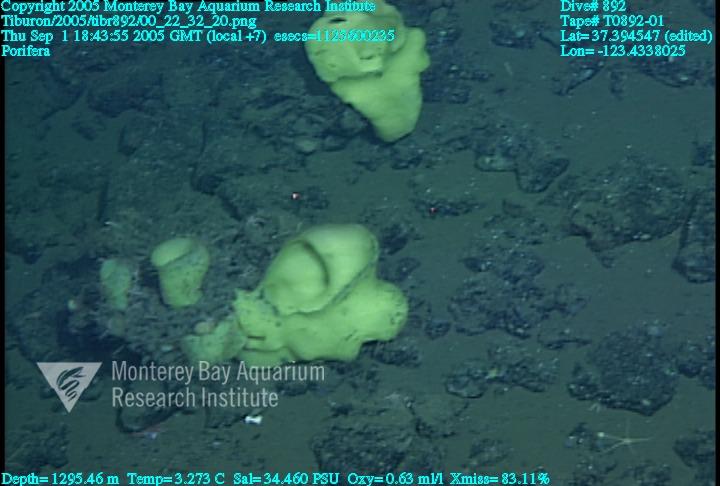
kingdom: Animalia
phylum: Porifera
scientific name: Porifera
